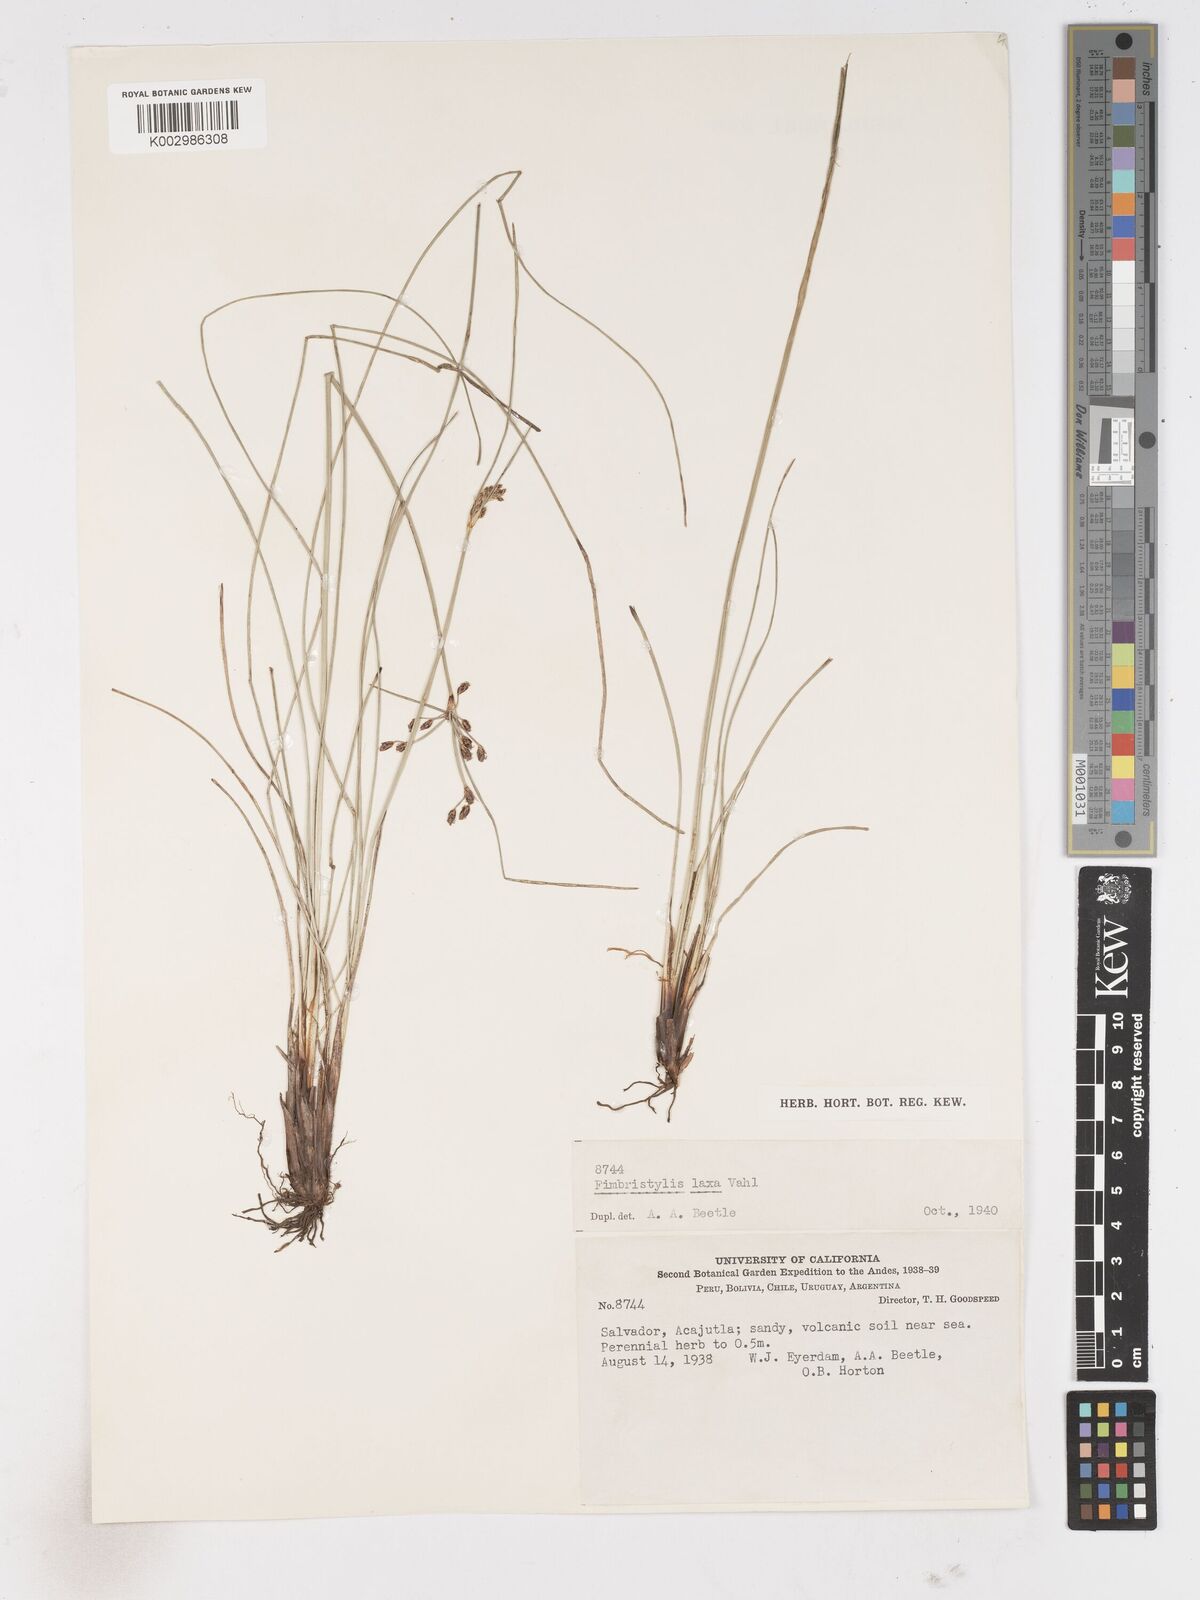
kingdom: Plantae
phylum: Tracheophyta
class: Liliopsida
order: Poales
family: Cyperaceae
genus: Fimbristylis
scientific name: Fimbristylis dichotoma
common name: Forked fimbry
